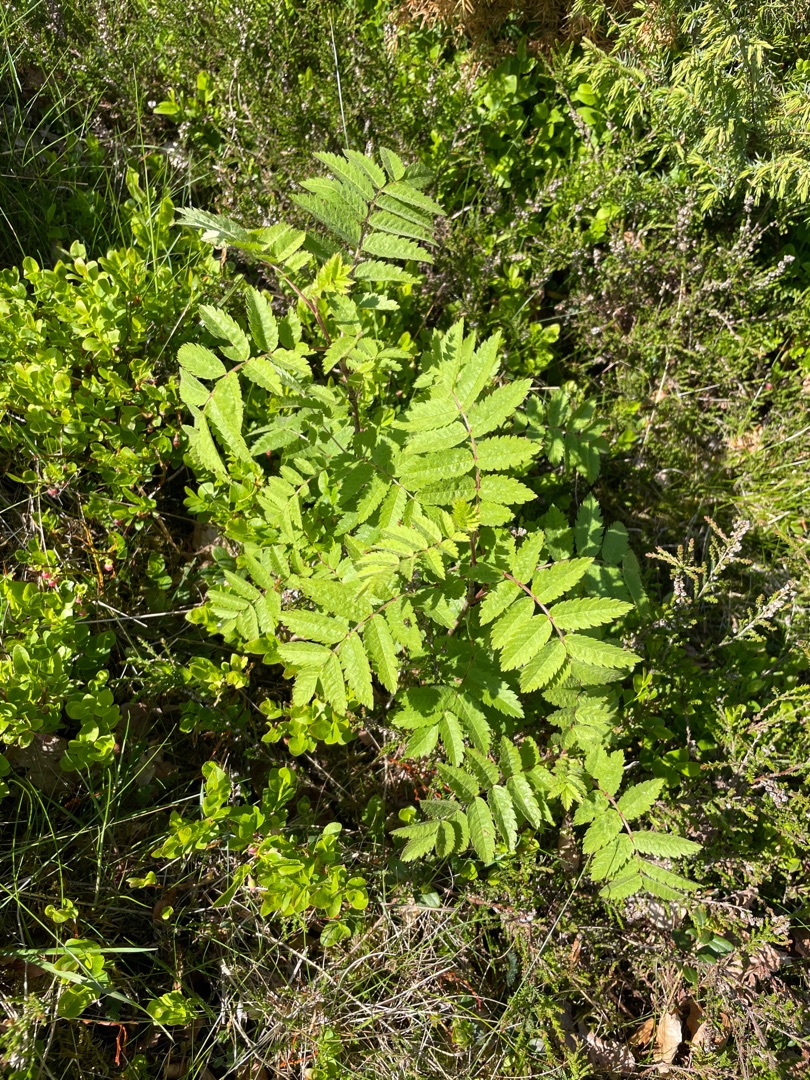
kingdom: Plantae
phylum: Tracheophyta
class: Magnoliopsida
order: Rosales
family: Rosaceae
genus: Sorbus
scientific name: Sorbus aucuparia
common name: Almindelig røn
